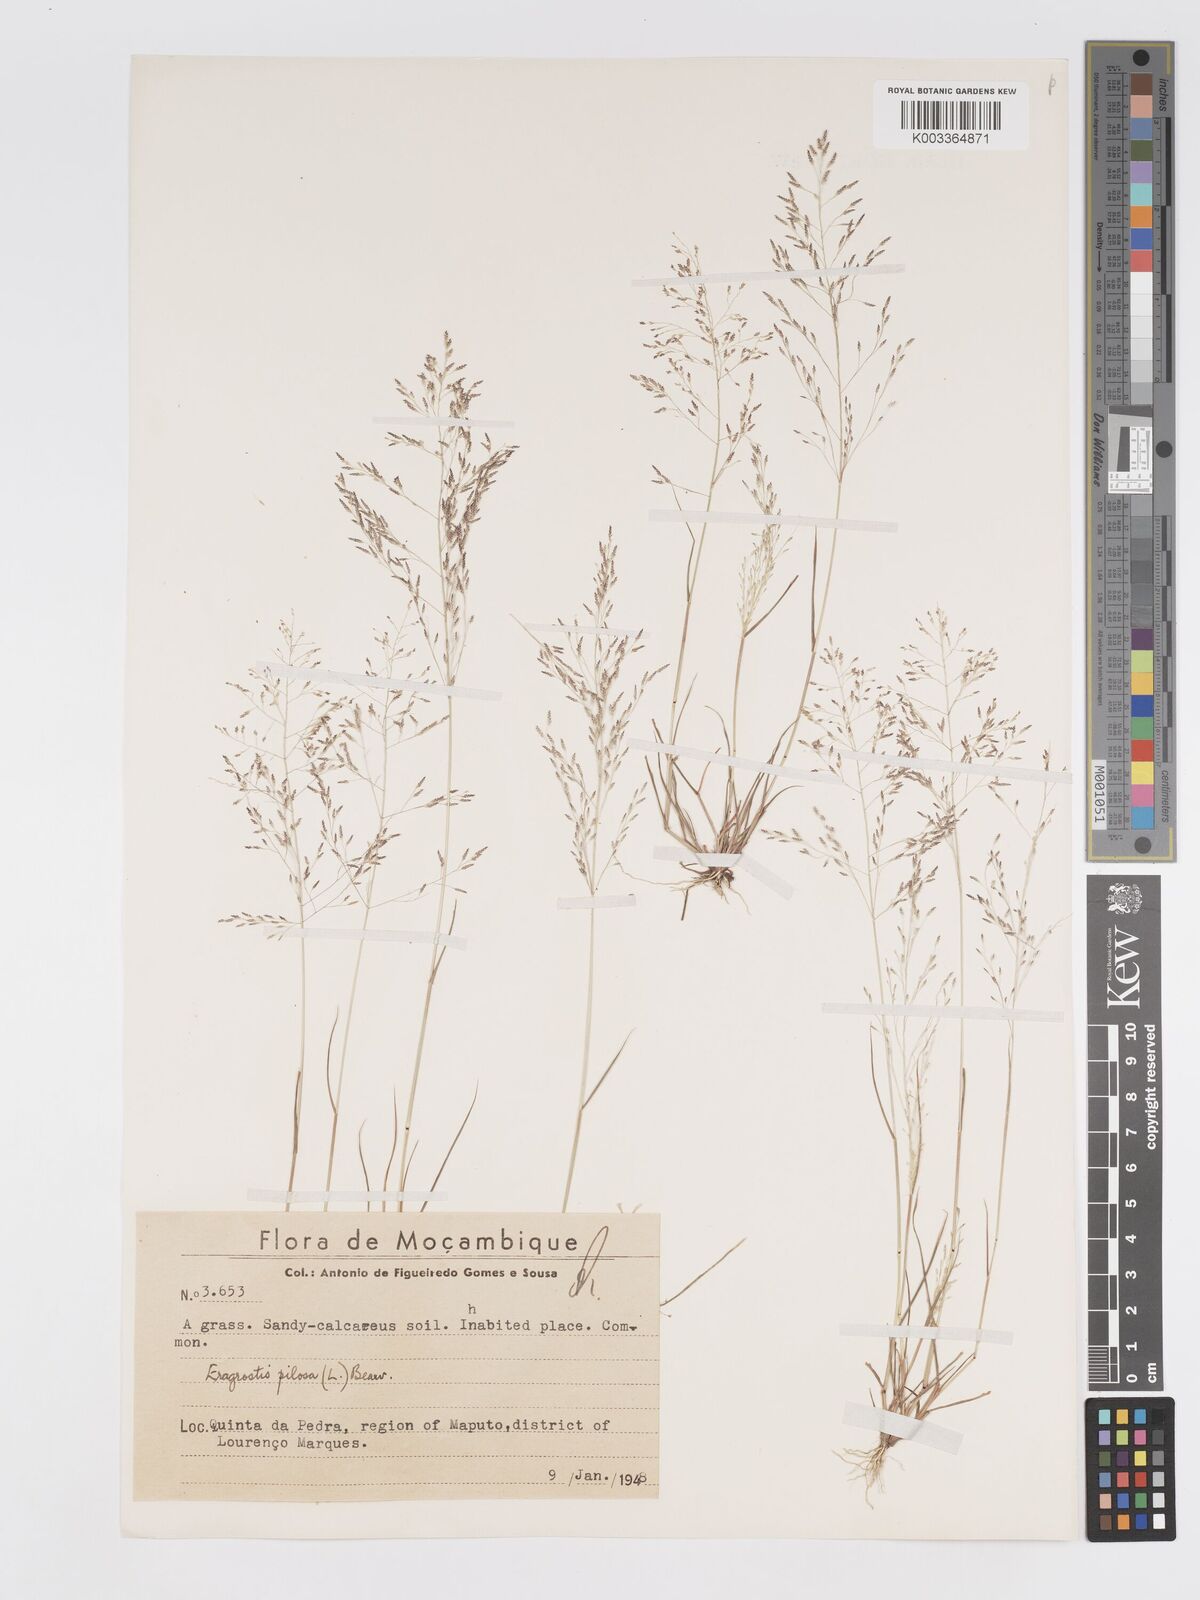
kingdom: Plantae
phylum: Tracheophyta
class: Liliopsida
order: Poales
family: Poaceae
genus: Eragrostis
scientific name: Eragrostis pilosa
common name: Indian lovegrass
